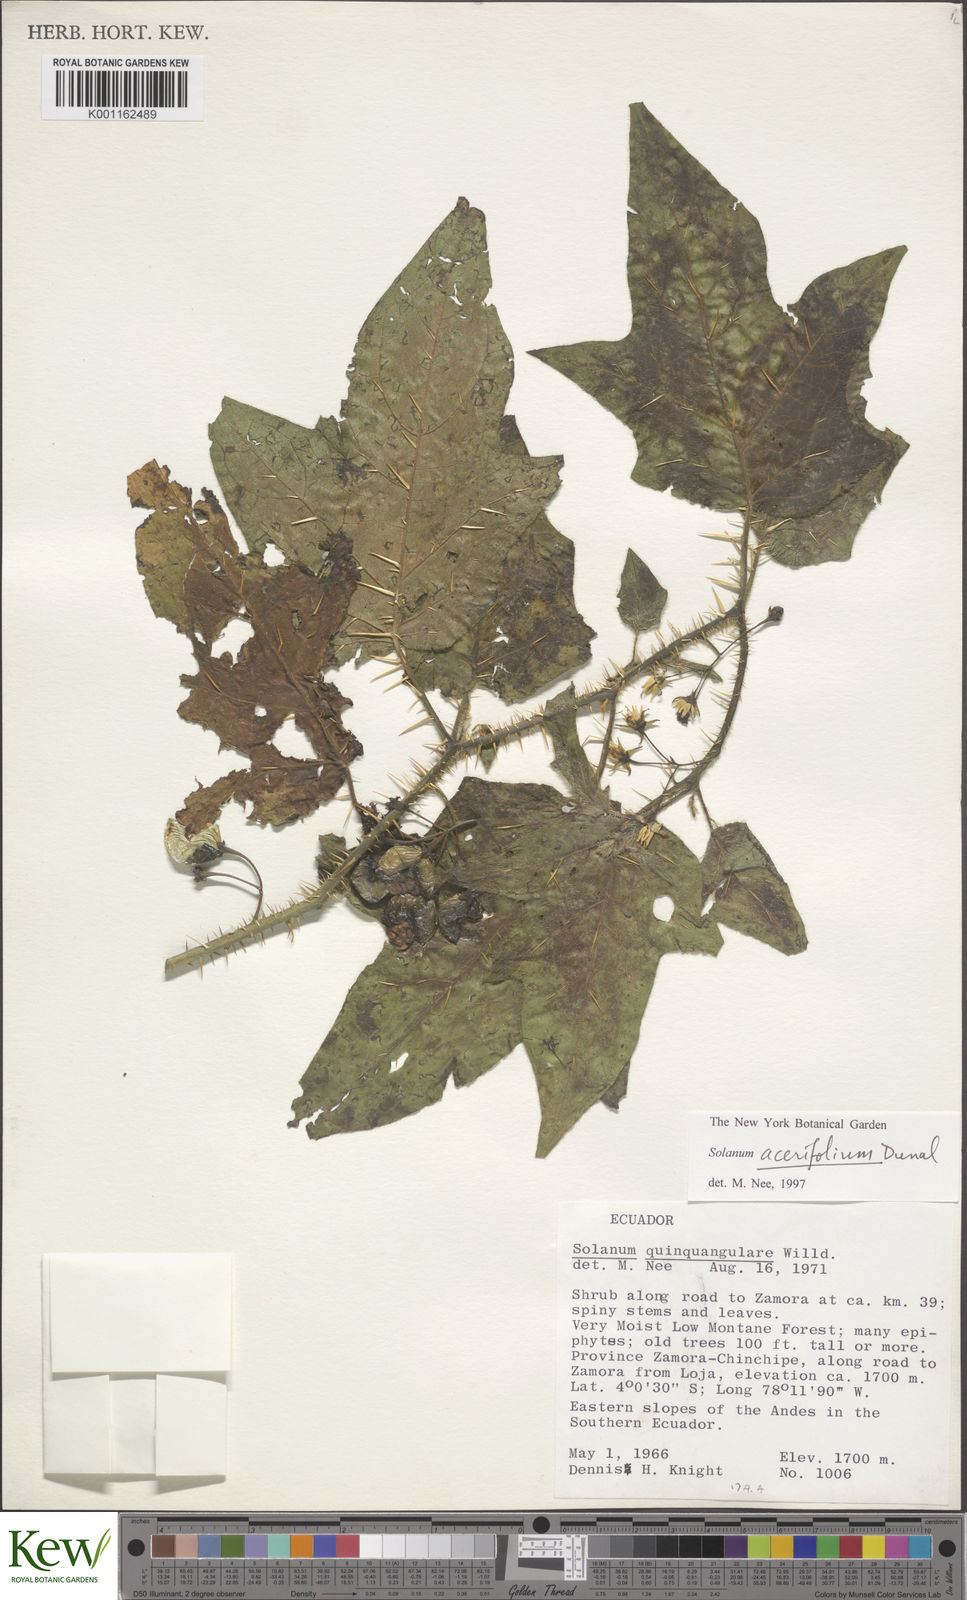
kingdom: Plantae
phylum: Tracheophyta
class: Magnoliopsida
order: Solanales
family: Solanaceae
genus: Solanum
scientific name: Solanum acerifolium
